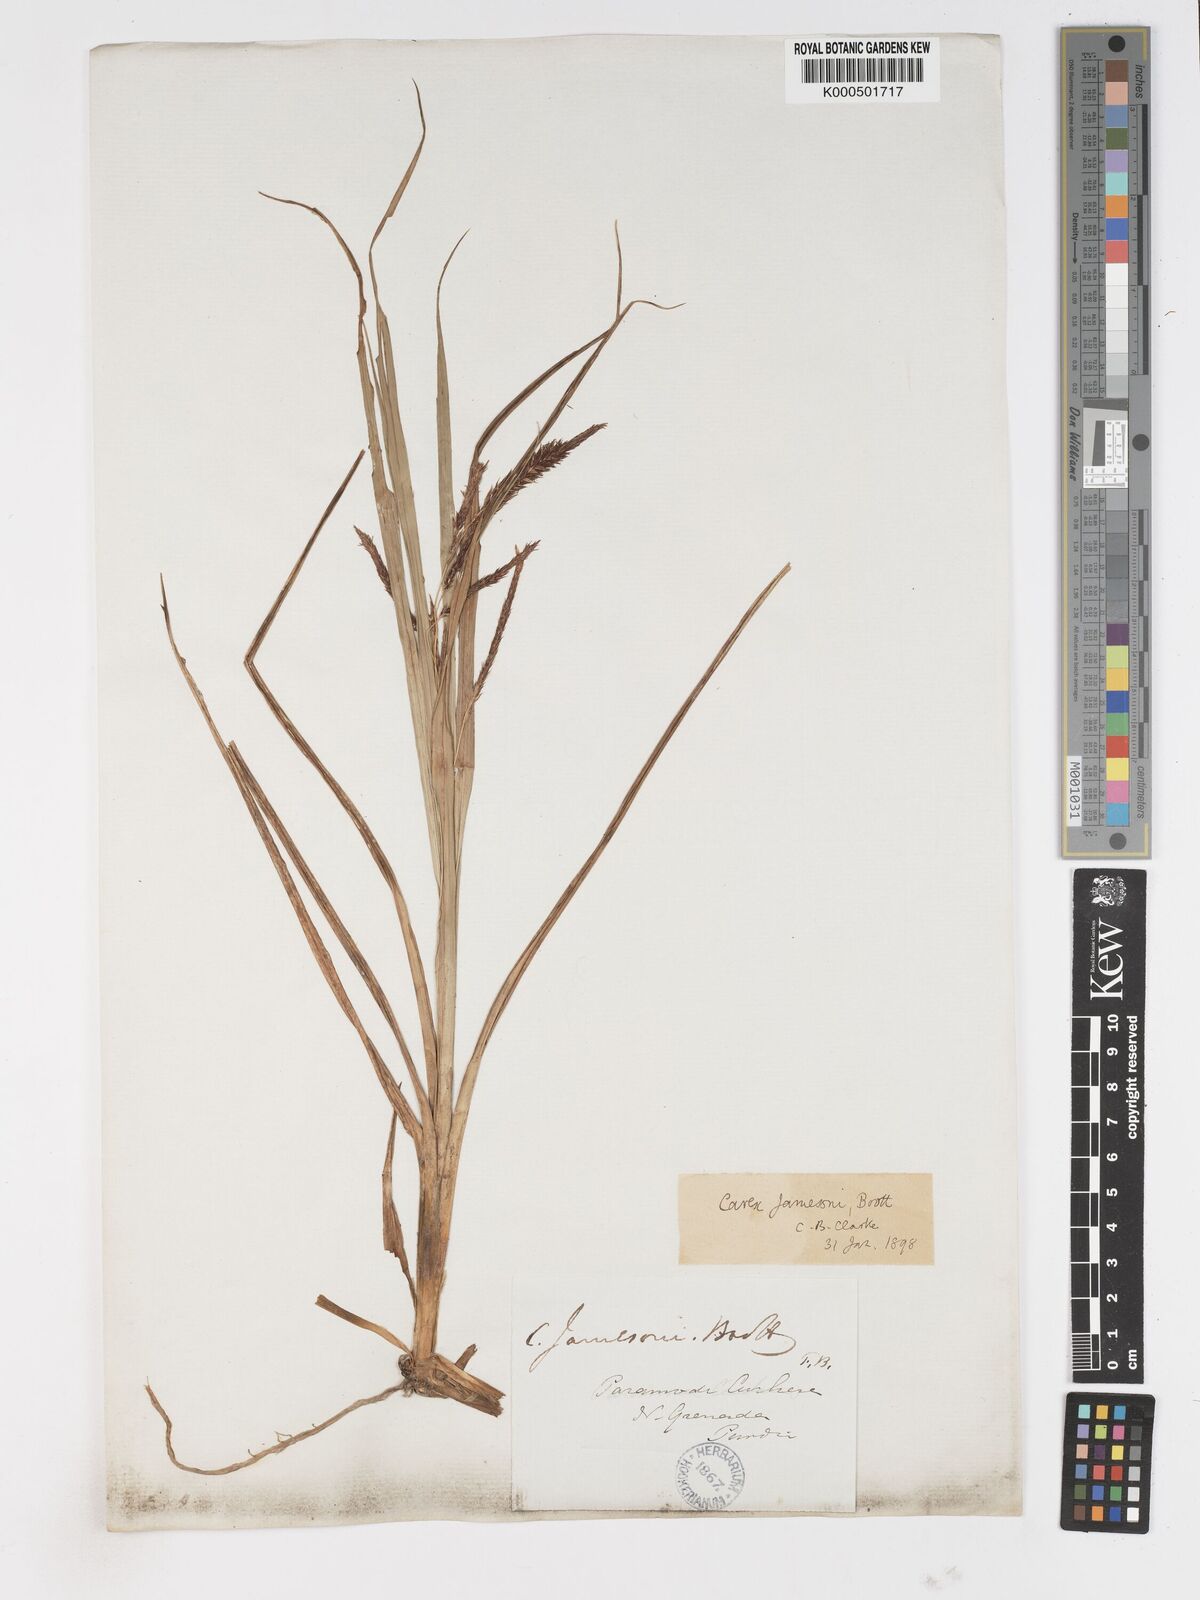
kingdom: Plantae
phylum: Tracheophyta
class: Liliopsida
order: Poales
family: Cyperaceae
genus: Carex
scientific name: Carex jamesonii
